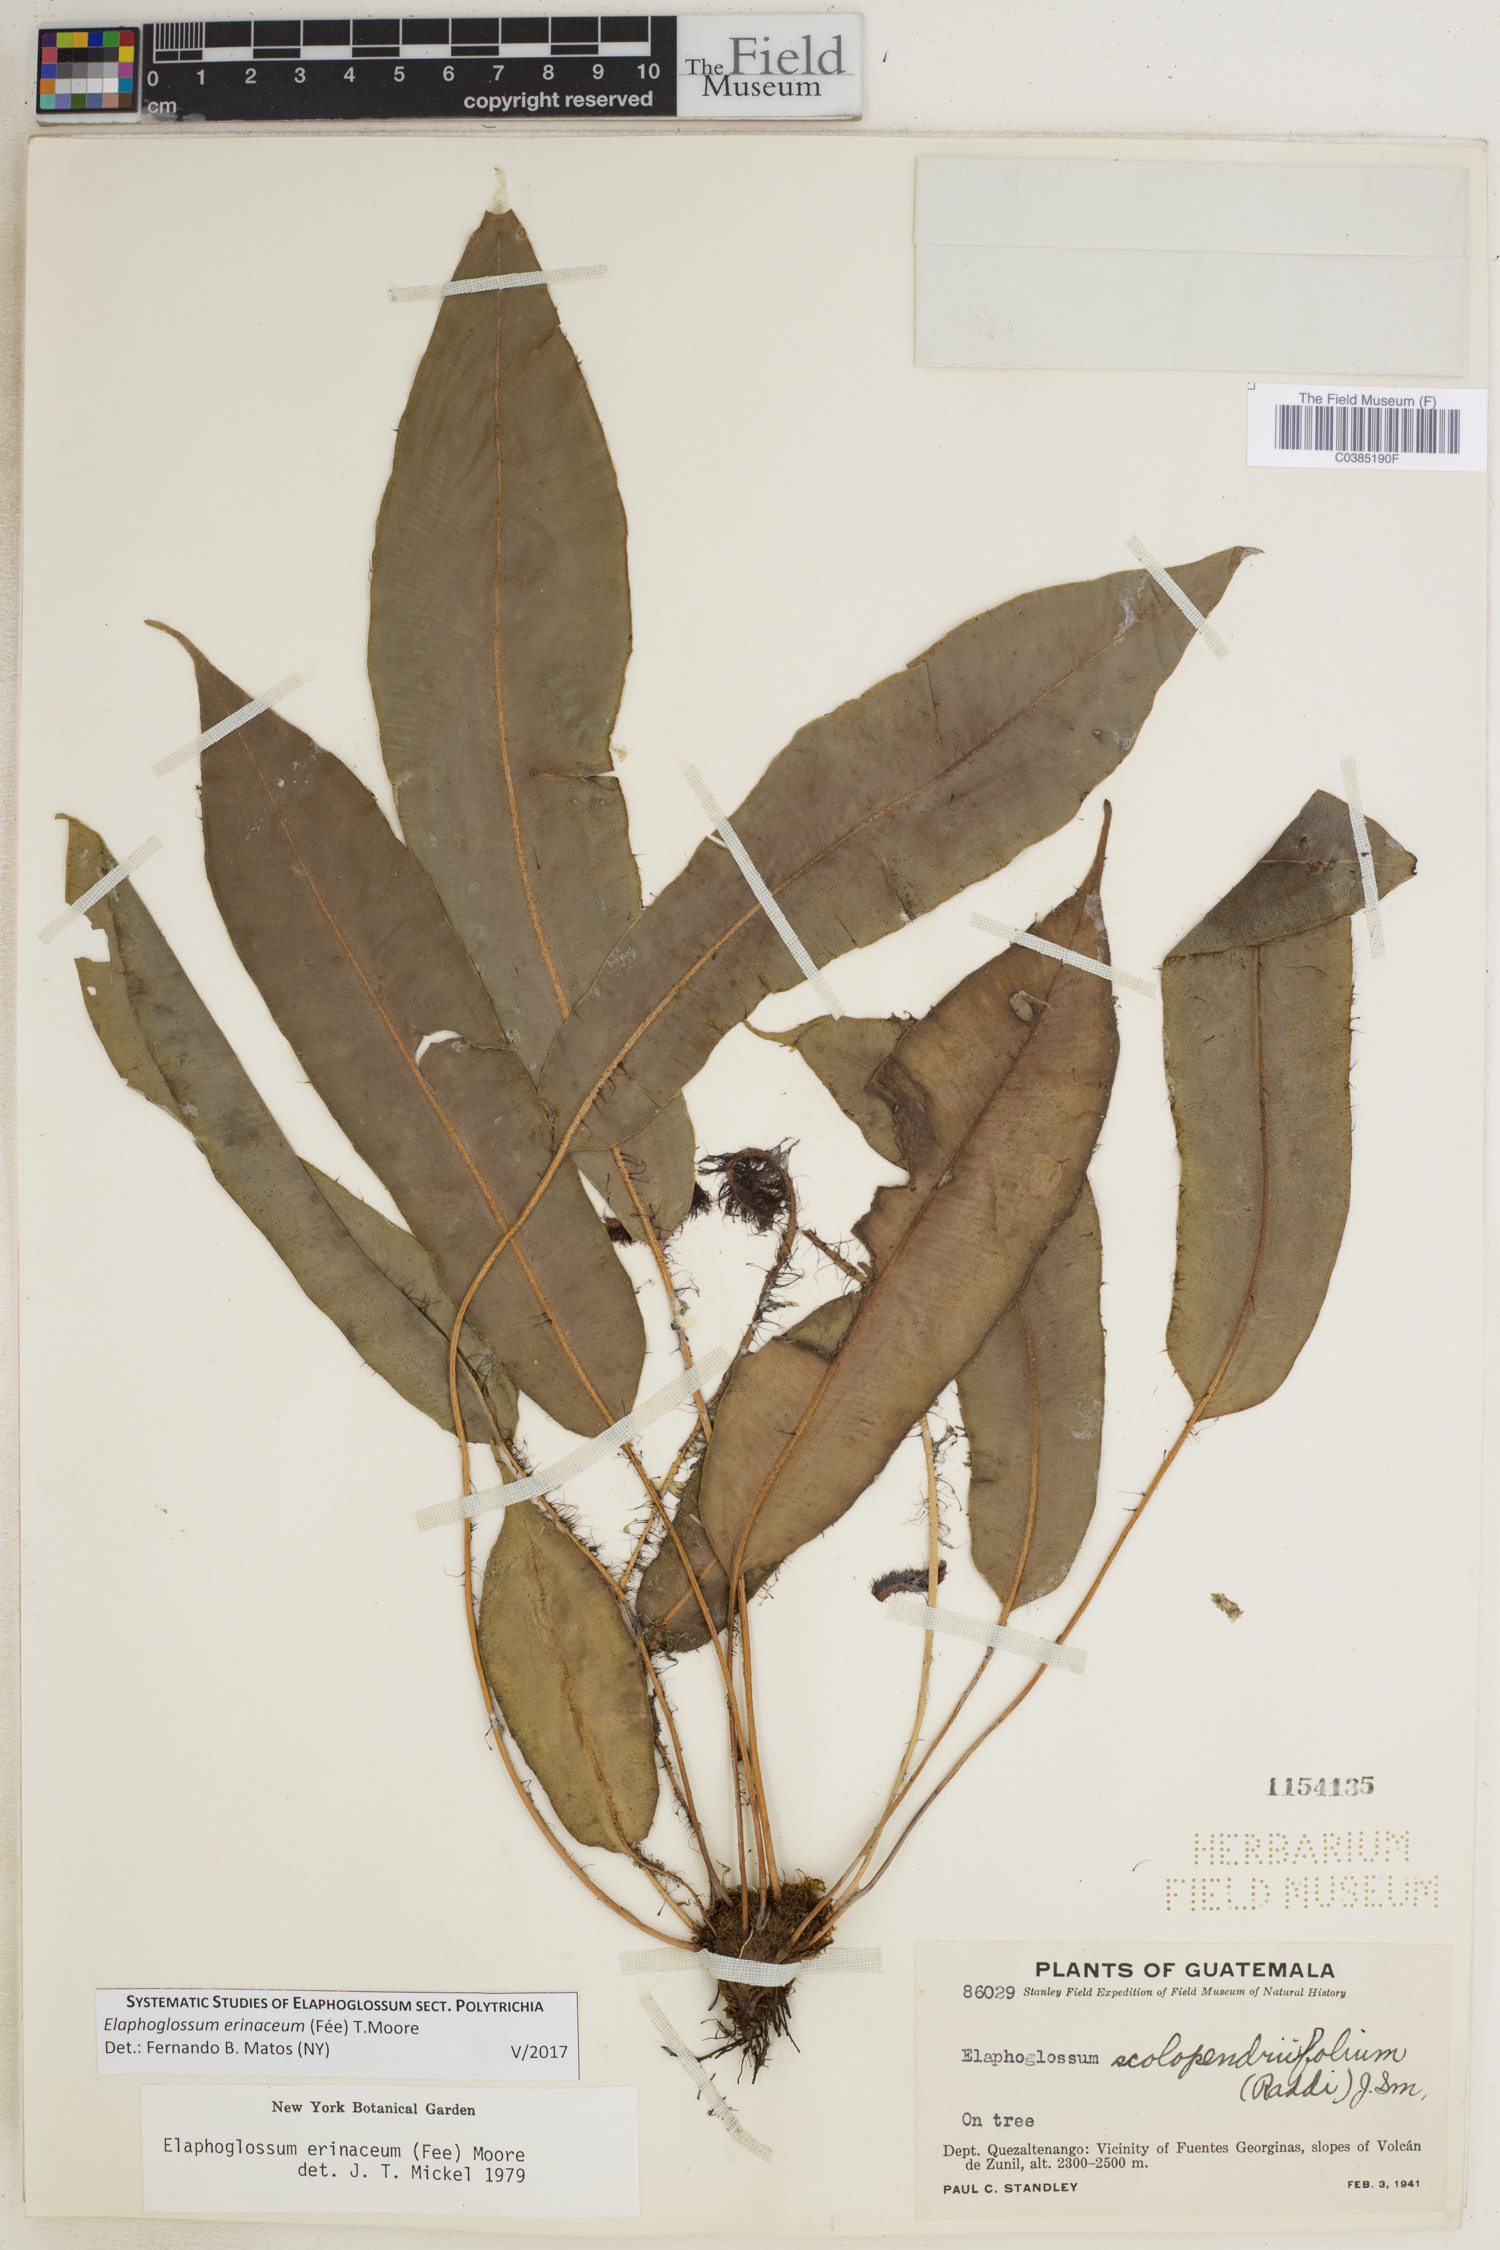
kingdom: Plantae
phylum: Tracheophyta
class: Polypodiopsida
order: Polypodiales
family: Dryopteridaceae
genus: Elaphoglossum
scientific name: Elaphoglossum erinaceum
